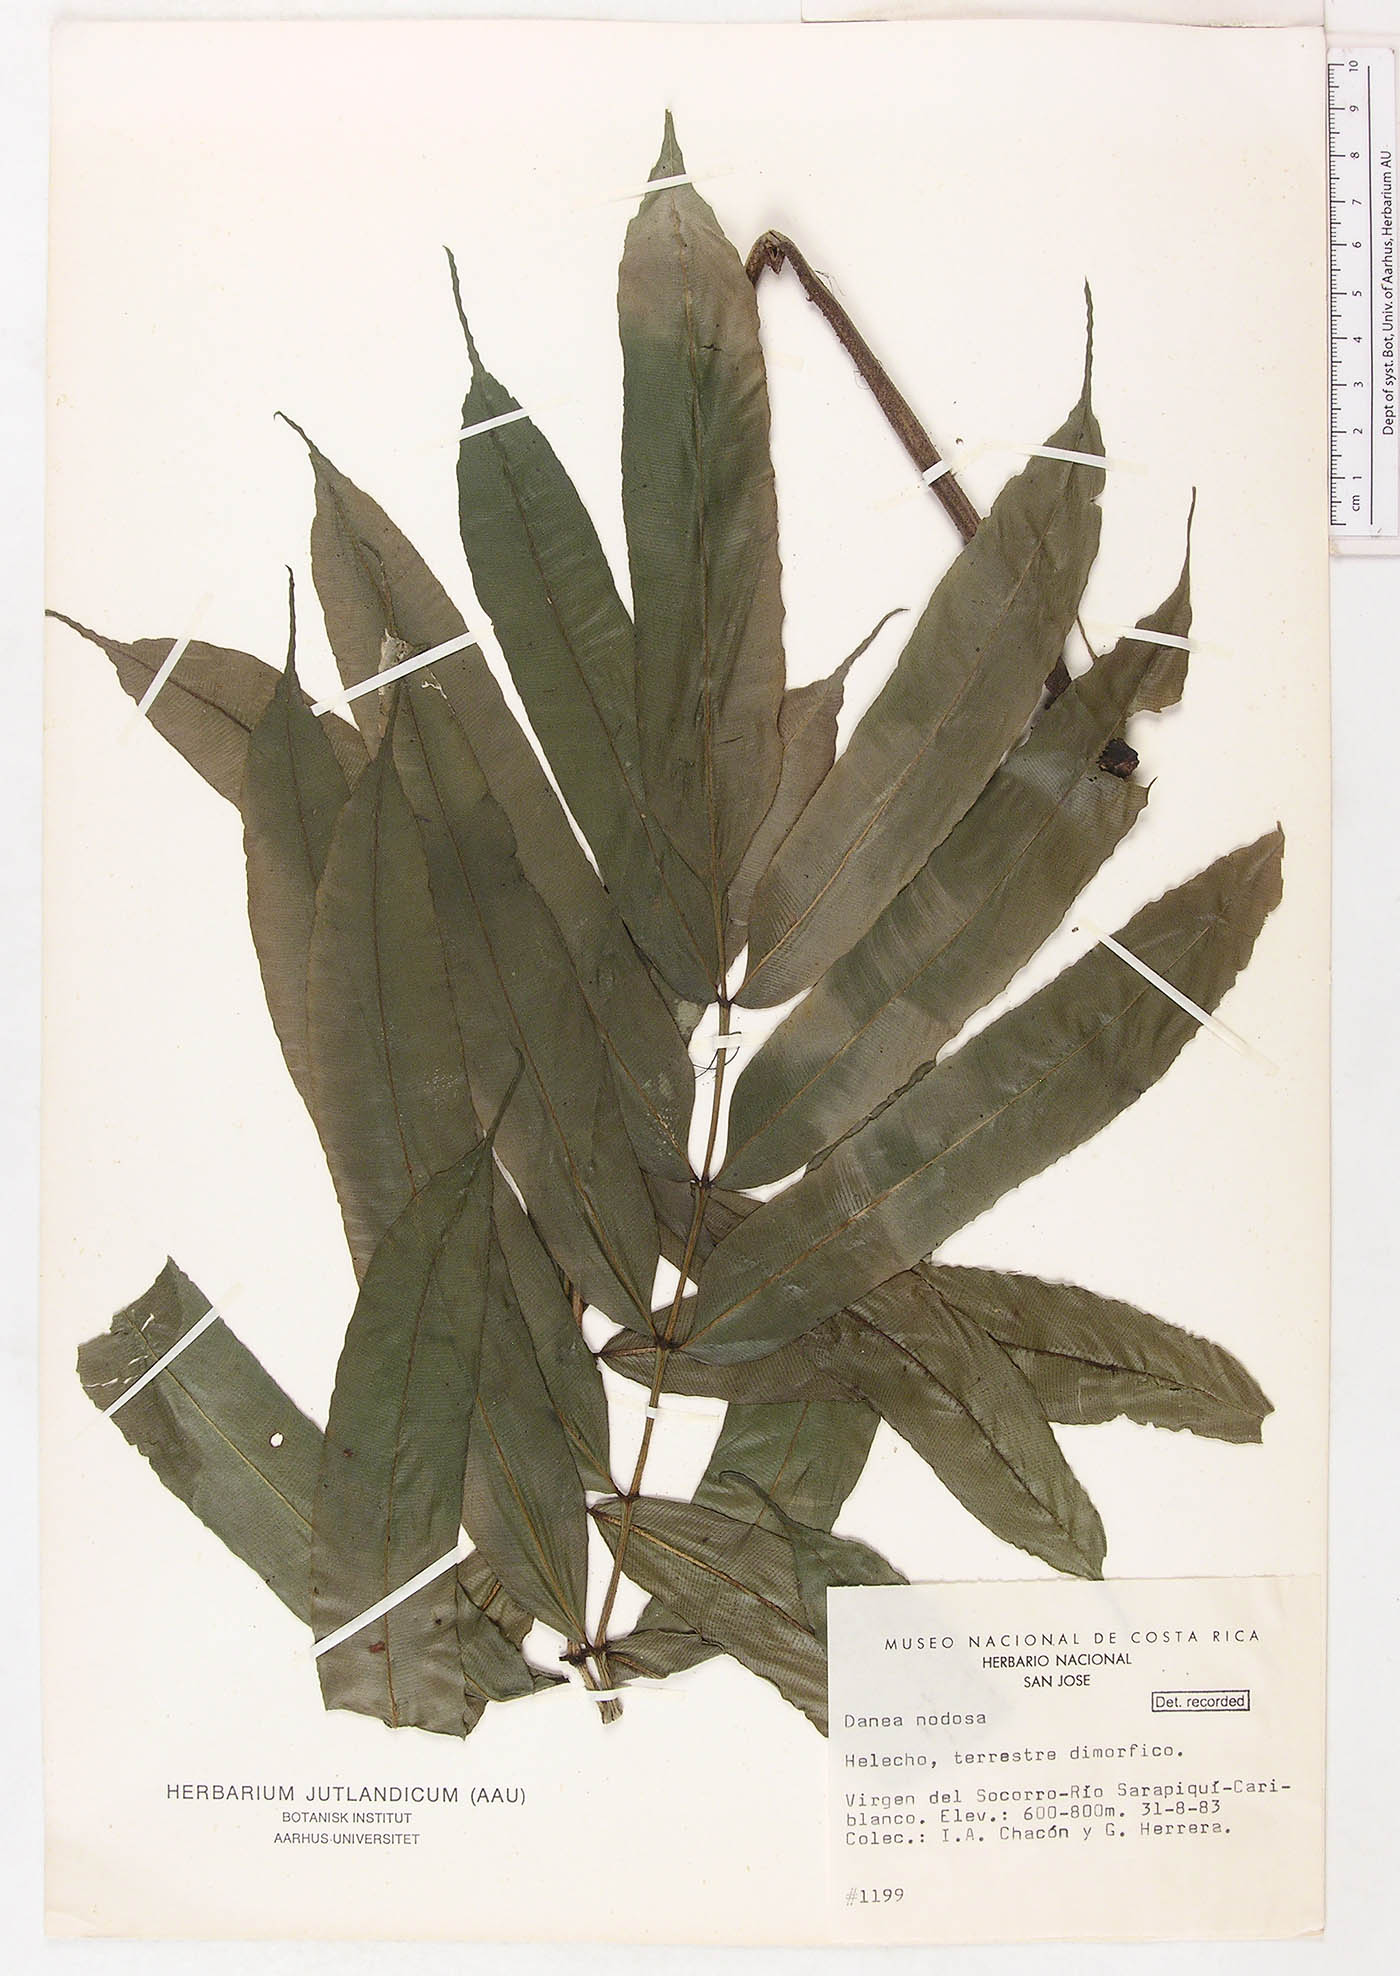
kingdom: Plantae
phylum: Tracheophyta
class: Polypodiopsida
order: Marattiales
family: Marattiaceae
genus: Danaea
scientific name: Danaea nodosa
